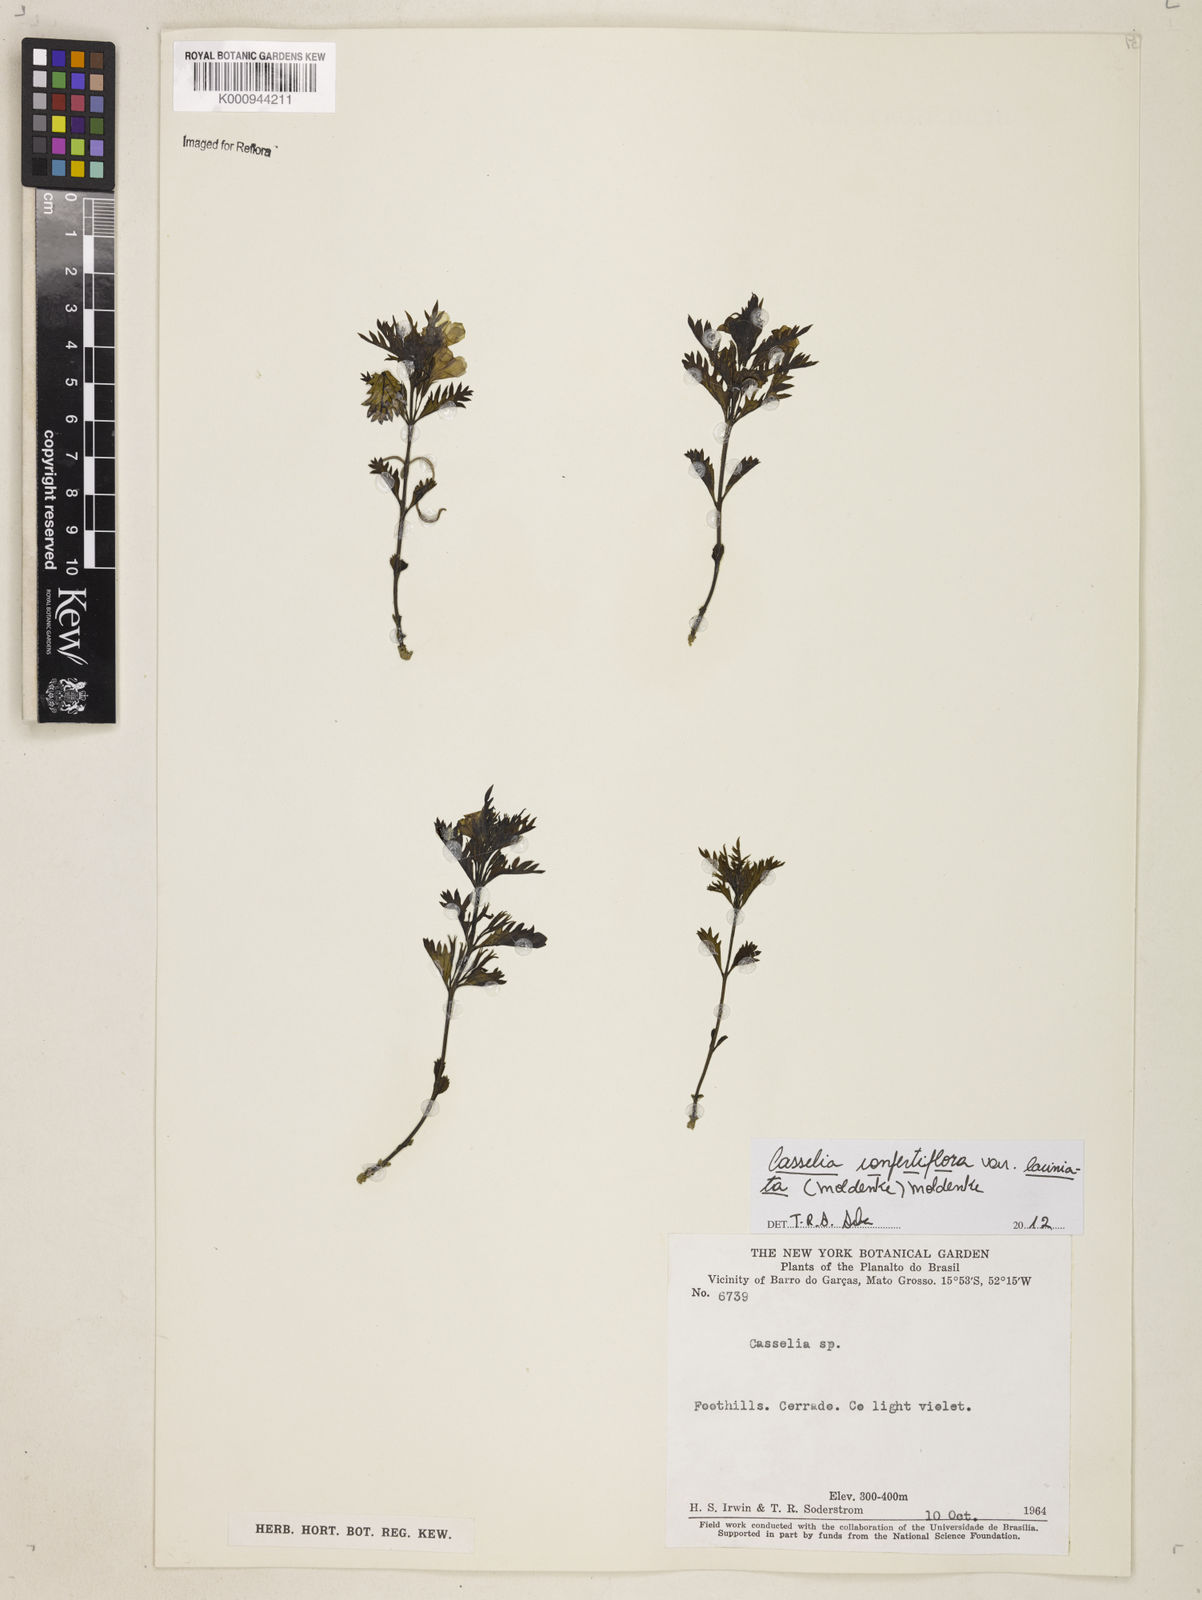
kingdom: Plantae
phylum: Tracheophyta
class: Magnoliopsida
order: Lamiales
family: Verbenaceae
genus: Casselia
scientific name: Casselia
